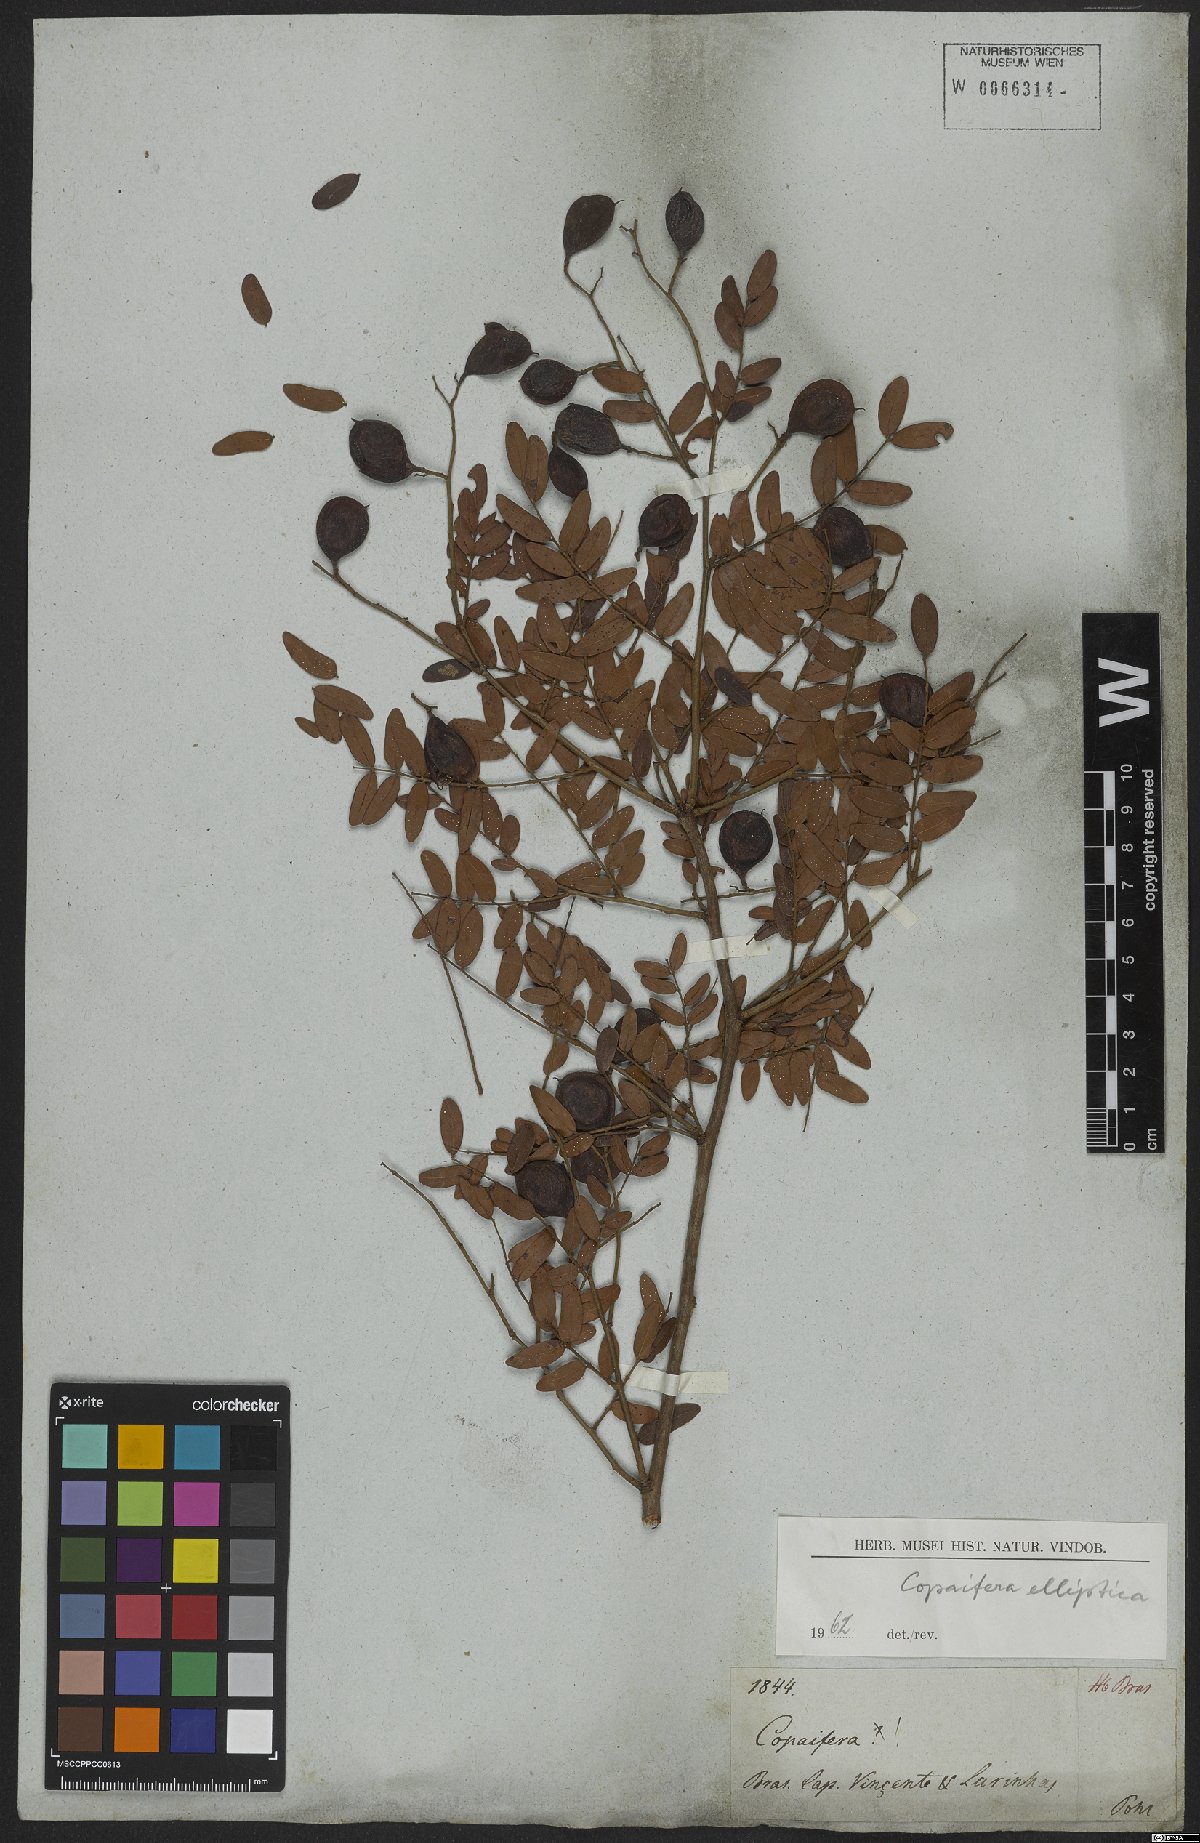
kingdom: Plantae
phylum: Tracheophyta
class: Magnoliopsida
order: Fabales
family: Fabaceae
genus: Copaifera
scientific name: Copaifera
